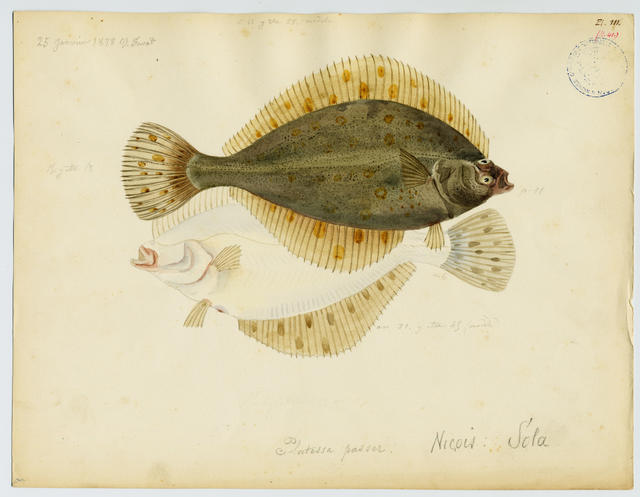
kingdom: Animalia
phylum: Chordata
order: Pleuronectiformes
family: Pleuronectidae
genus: Platichthys
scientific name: Platichthys flesus
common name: European flounder
